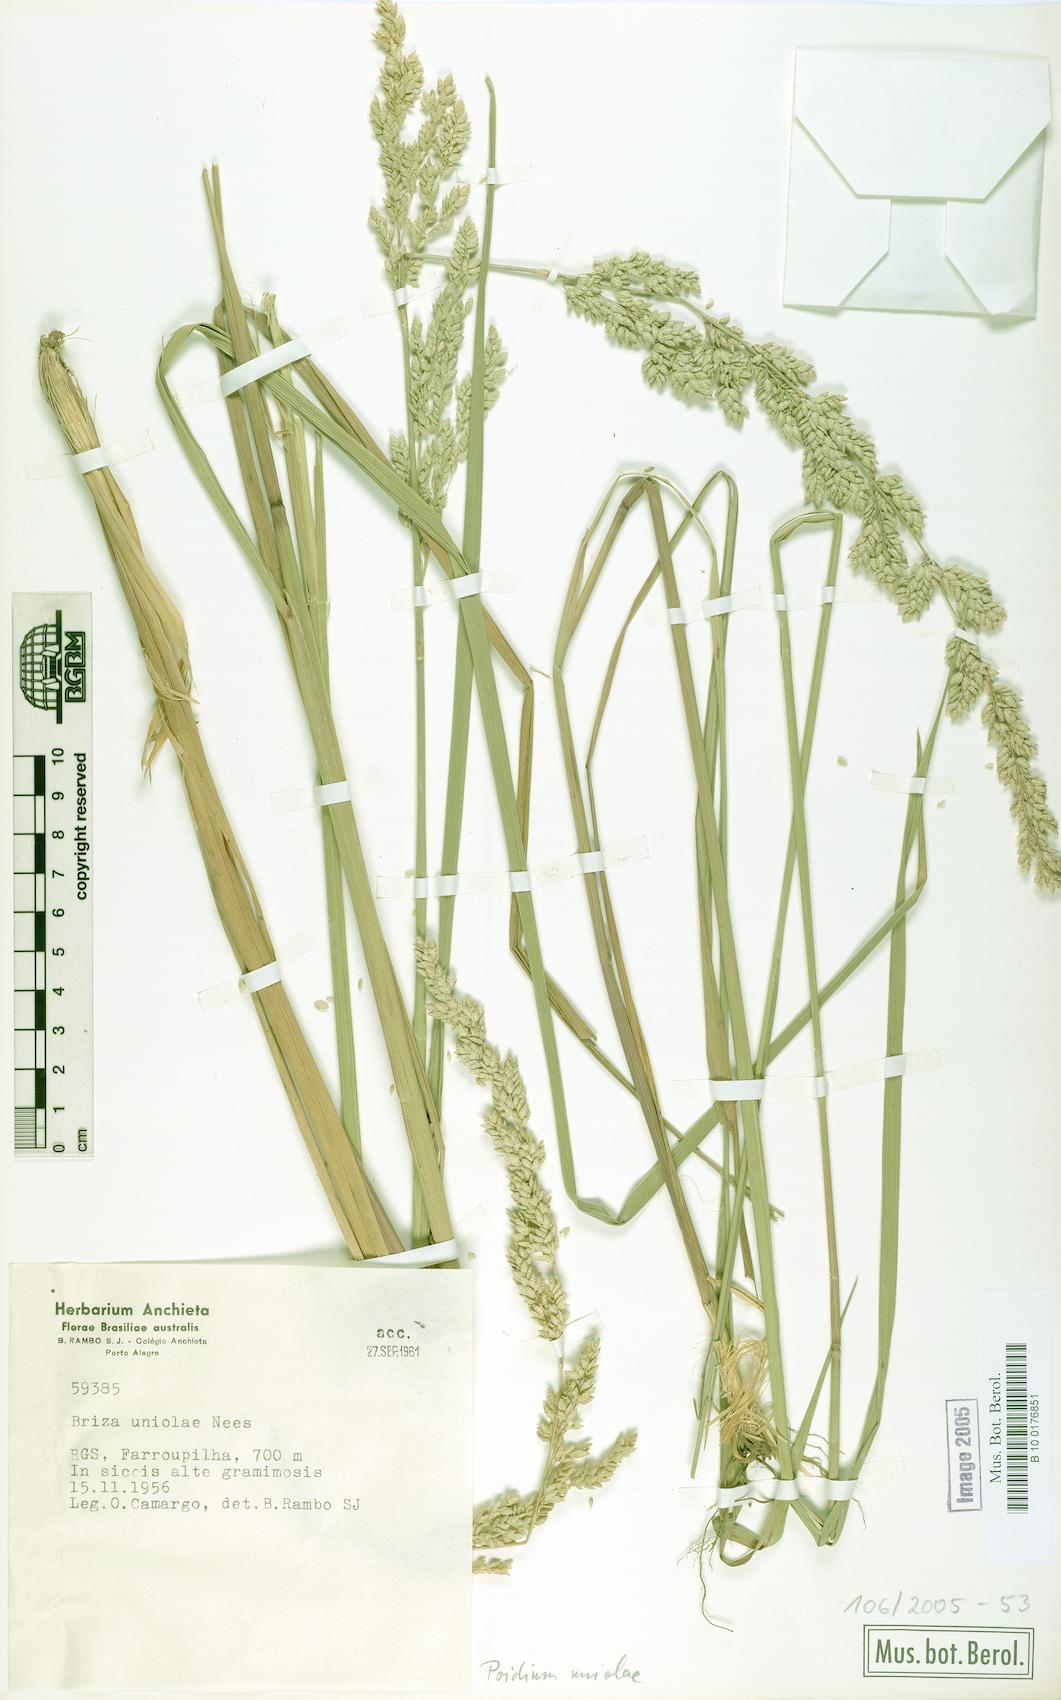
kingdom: Plantae
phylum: Tracheophyta
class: Liliopsida
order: Poales
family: Poaceae
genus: Poidium
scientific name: Poidium uniolae
